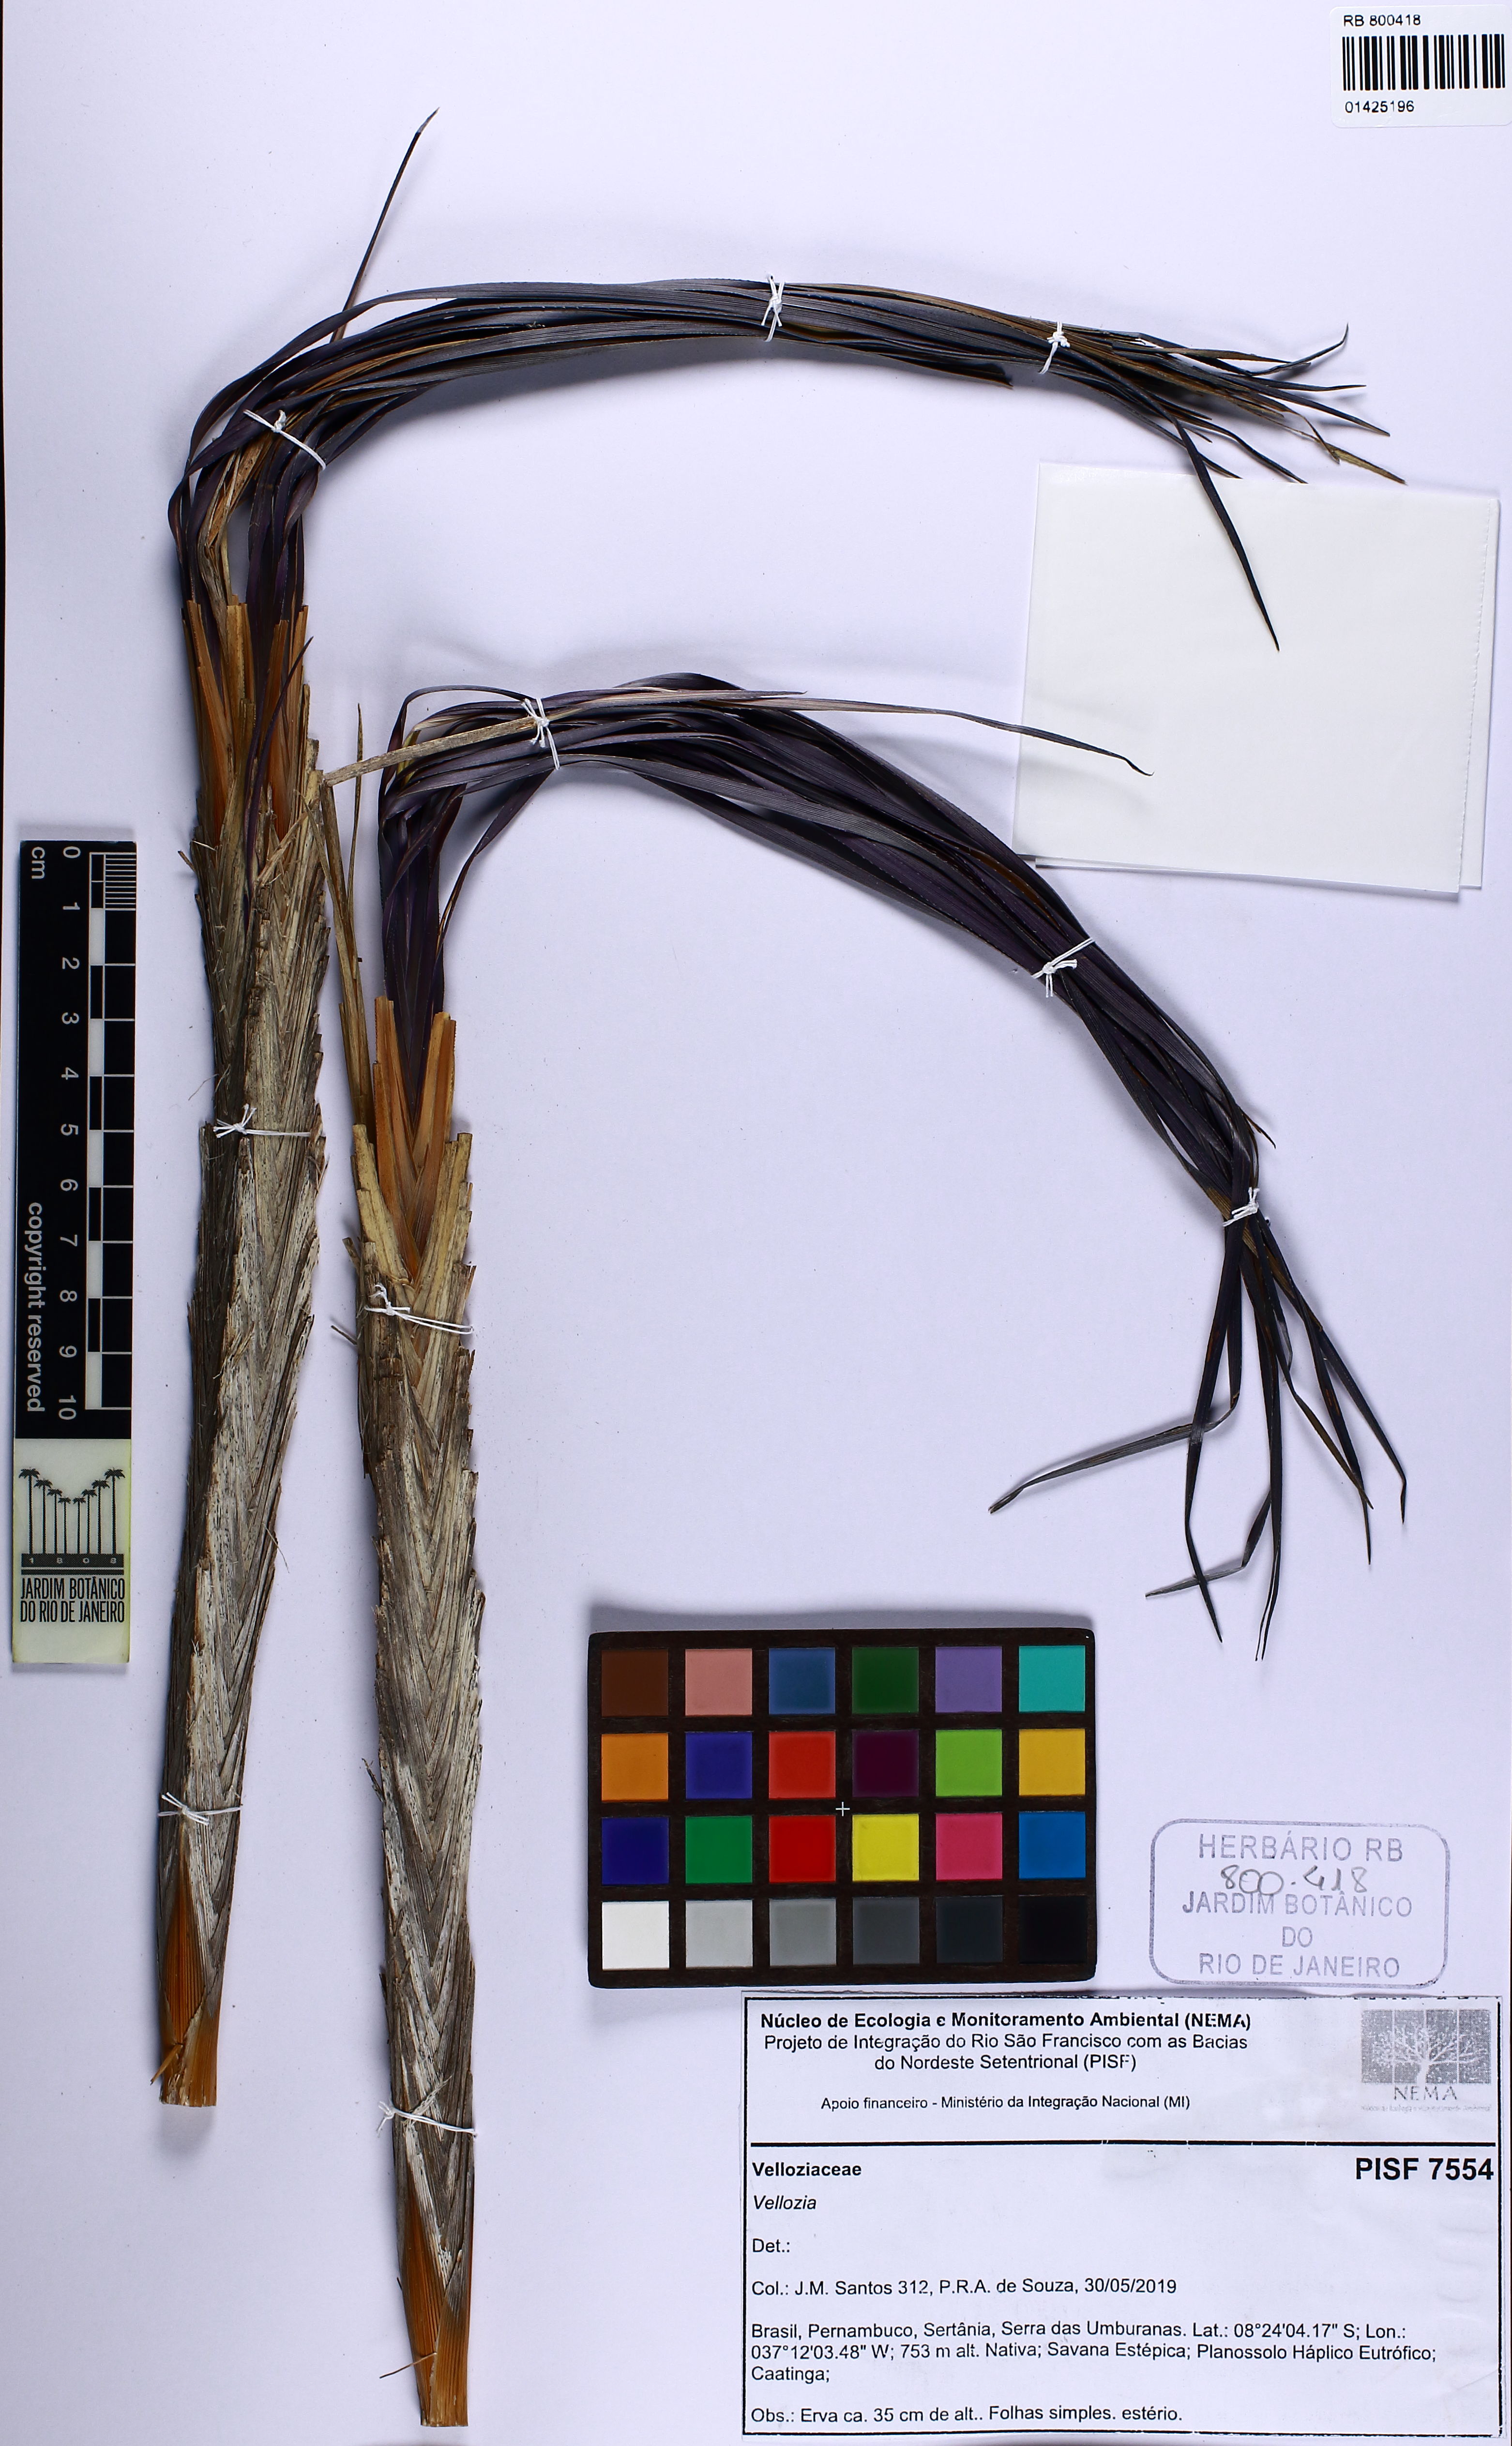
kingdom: Plantae
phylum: Tracheophyta
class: Liliopsida
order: Pandanales
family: Velloziaceae
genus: Nanuza
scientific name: Nanuza plicata
